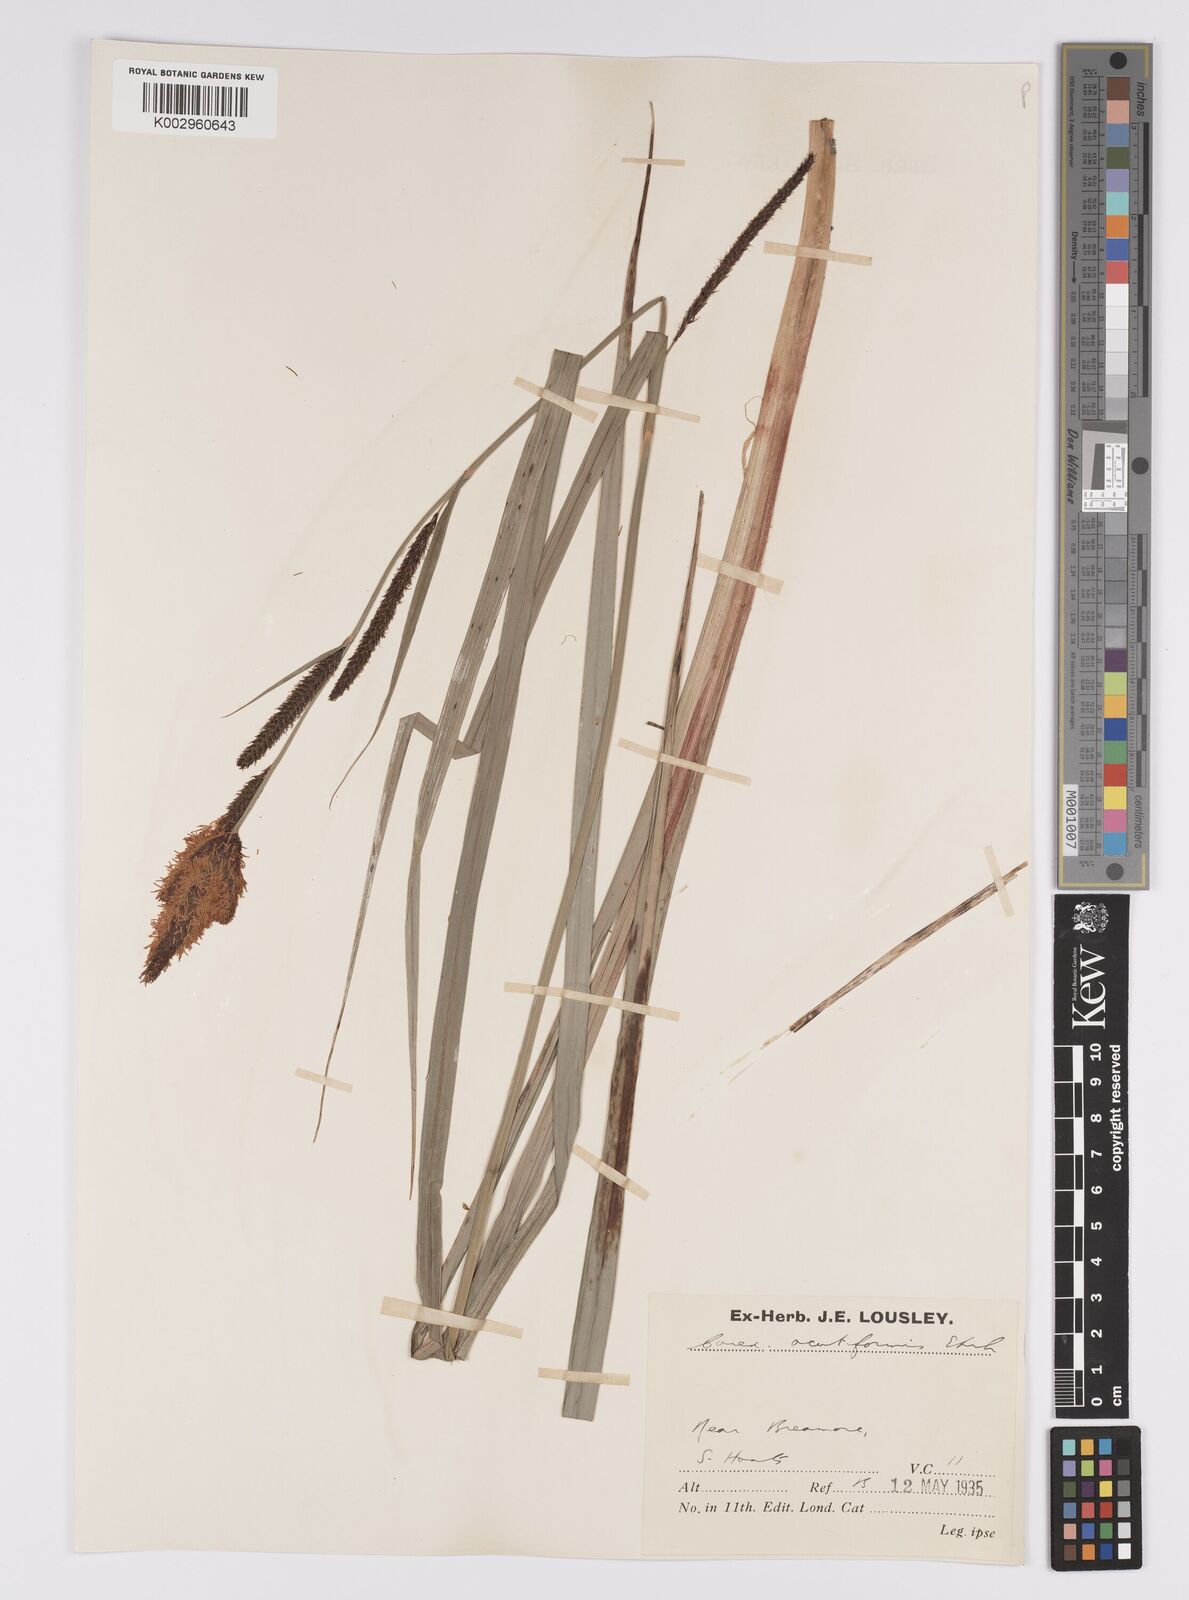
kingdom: Plantae
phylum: Tracheophyta
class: Liliopsida
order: Poales
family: Cyperaceae
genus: Carex
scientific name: Carex acutiformis
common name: Lesser pond-sedge
